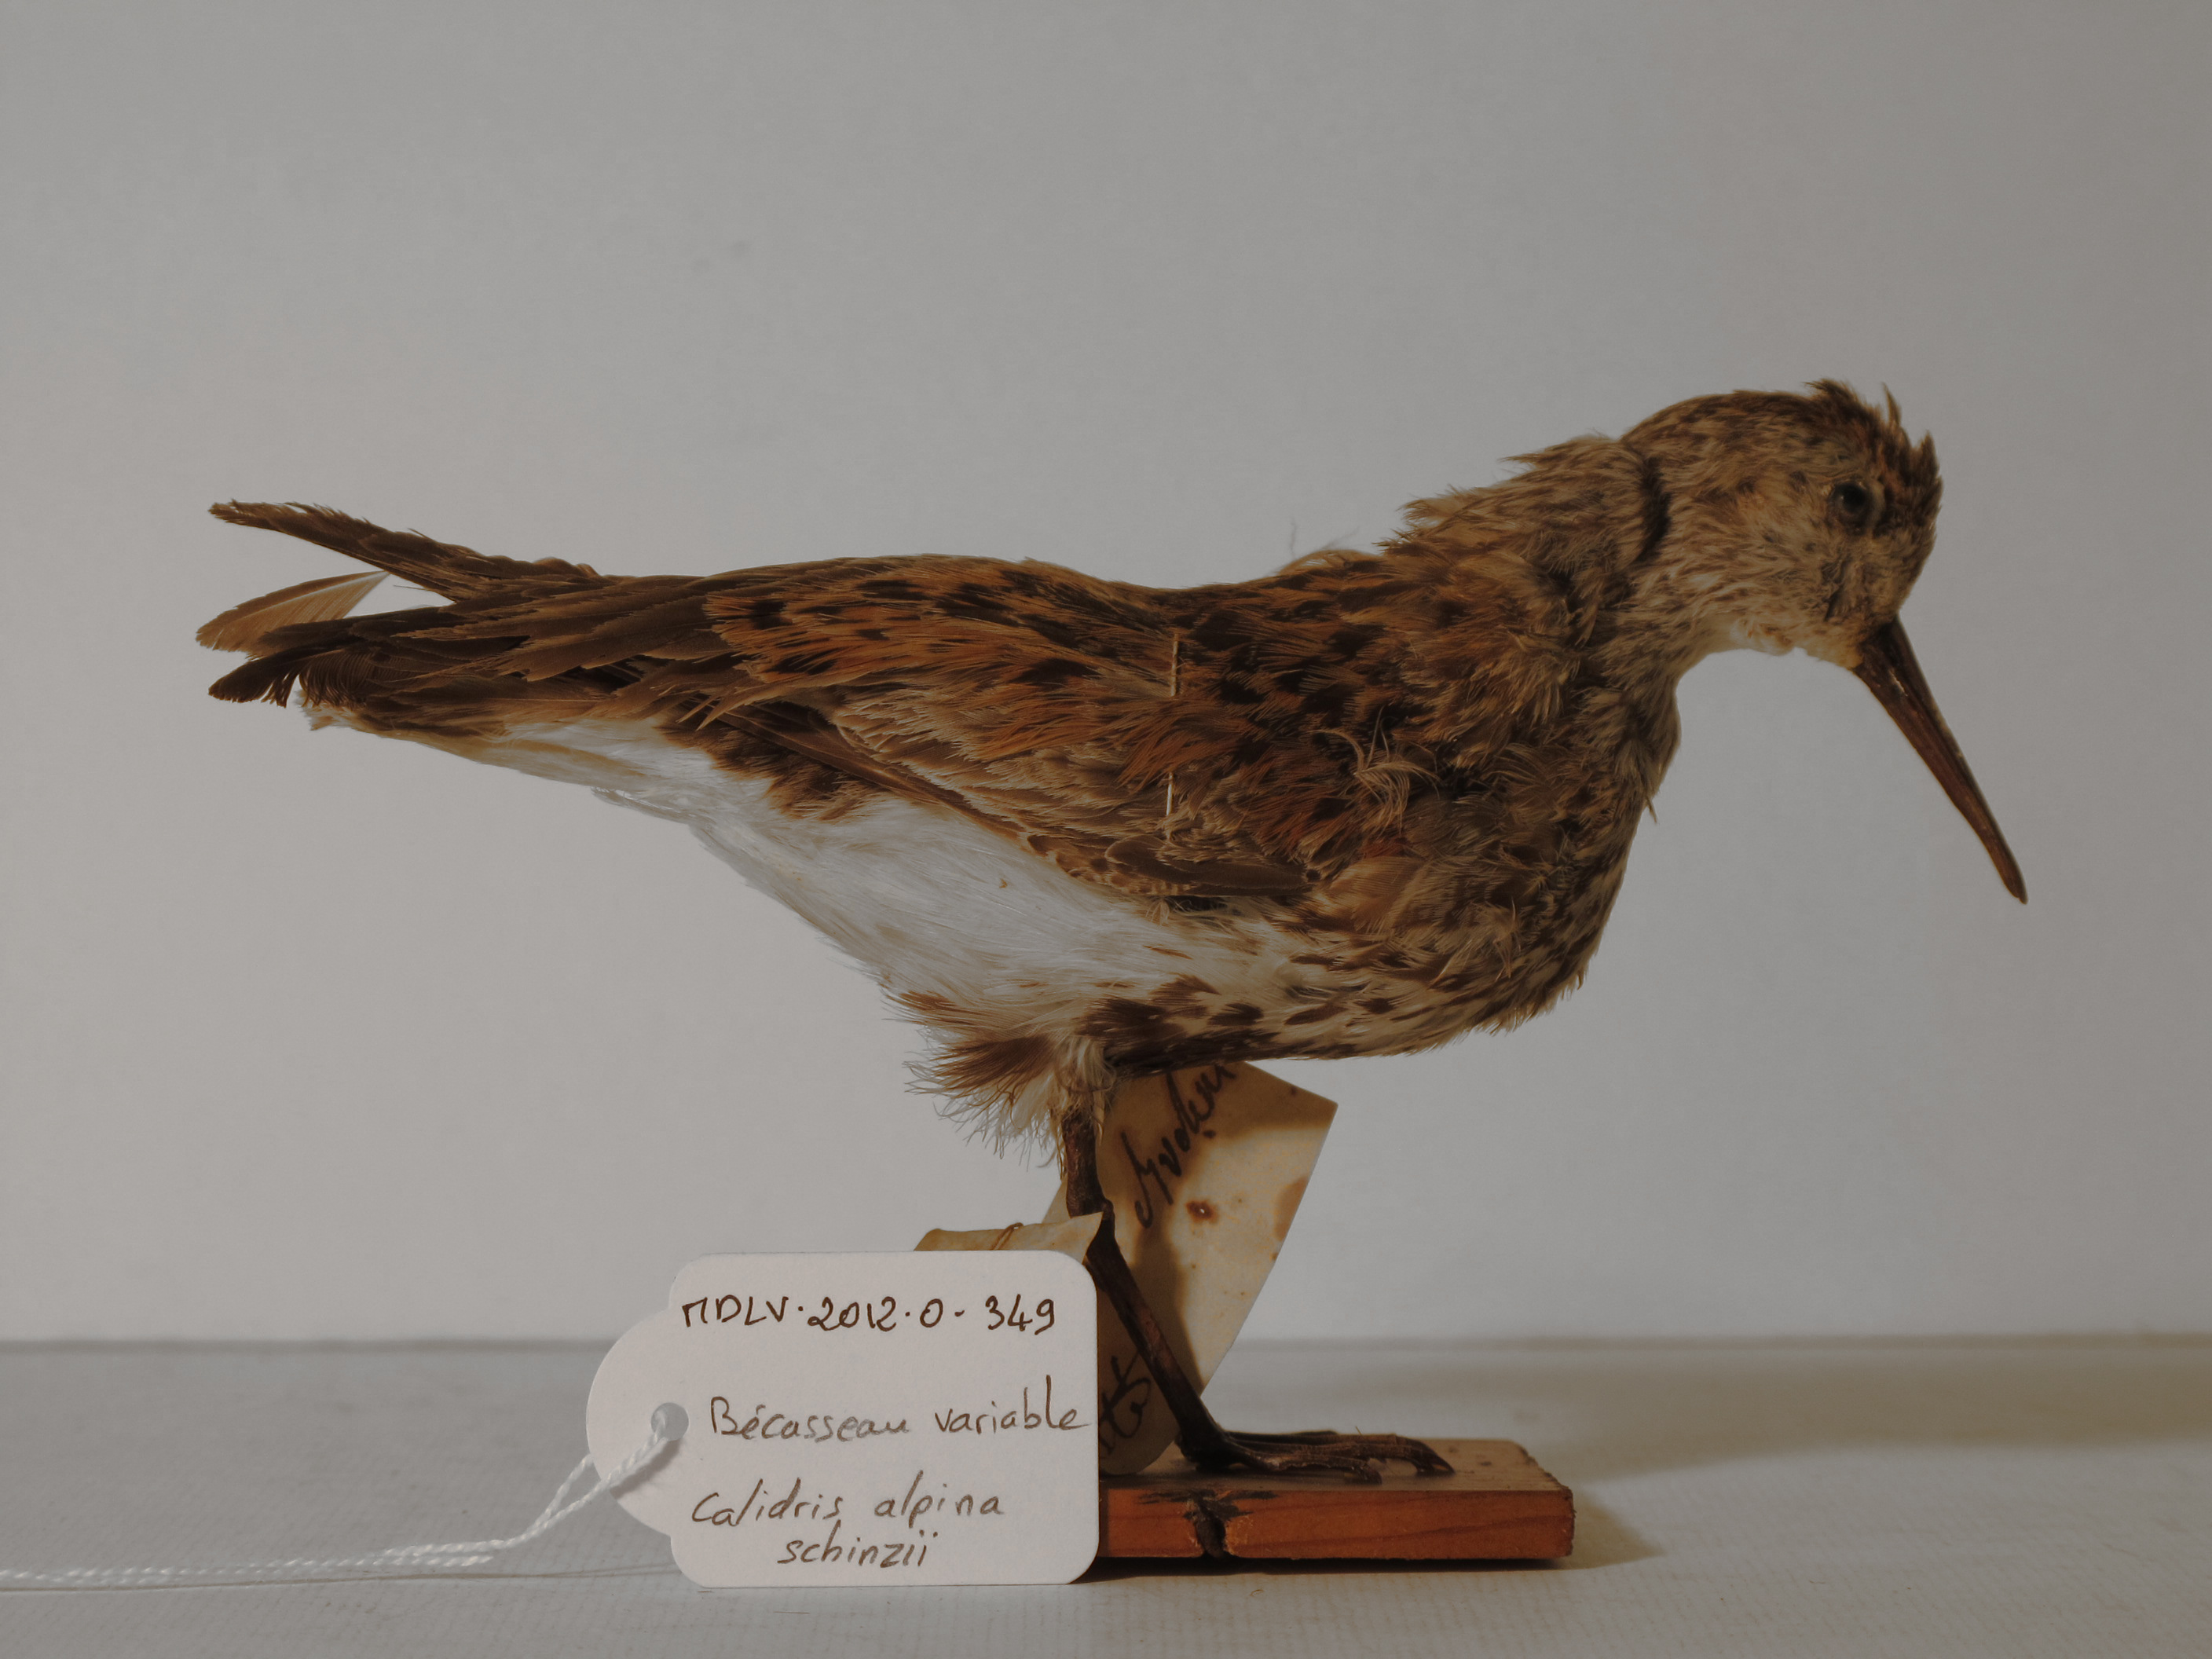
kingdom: Animalia
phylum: Chordata
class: Aves
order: Charadriiformes
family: Scolopacidae
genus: Calidris
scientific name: Calidris alpina
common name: Dunlin
